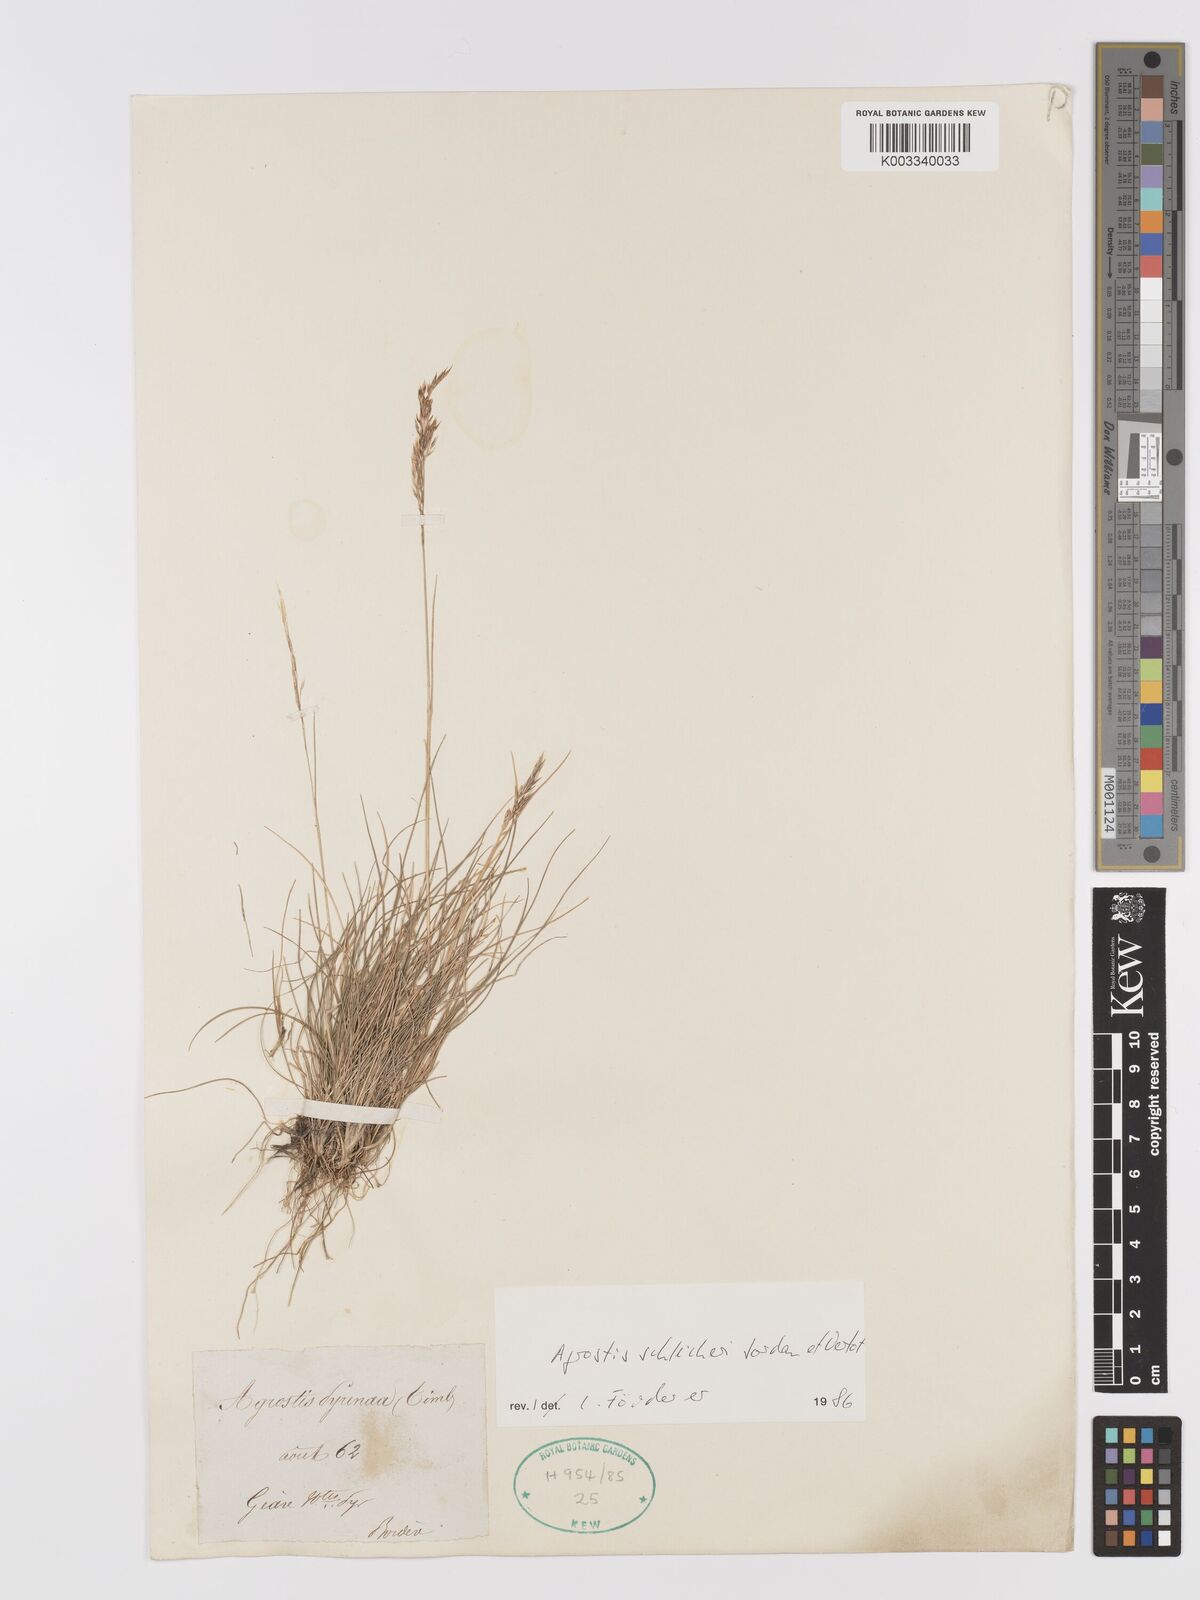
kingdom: Plantae
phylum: Tracheophyta
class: Liliopsida
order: Poales
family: Poaceae
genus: Alpagrostis
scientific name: Alpagrostis schleicheri
